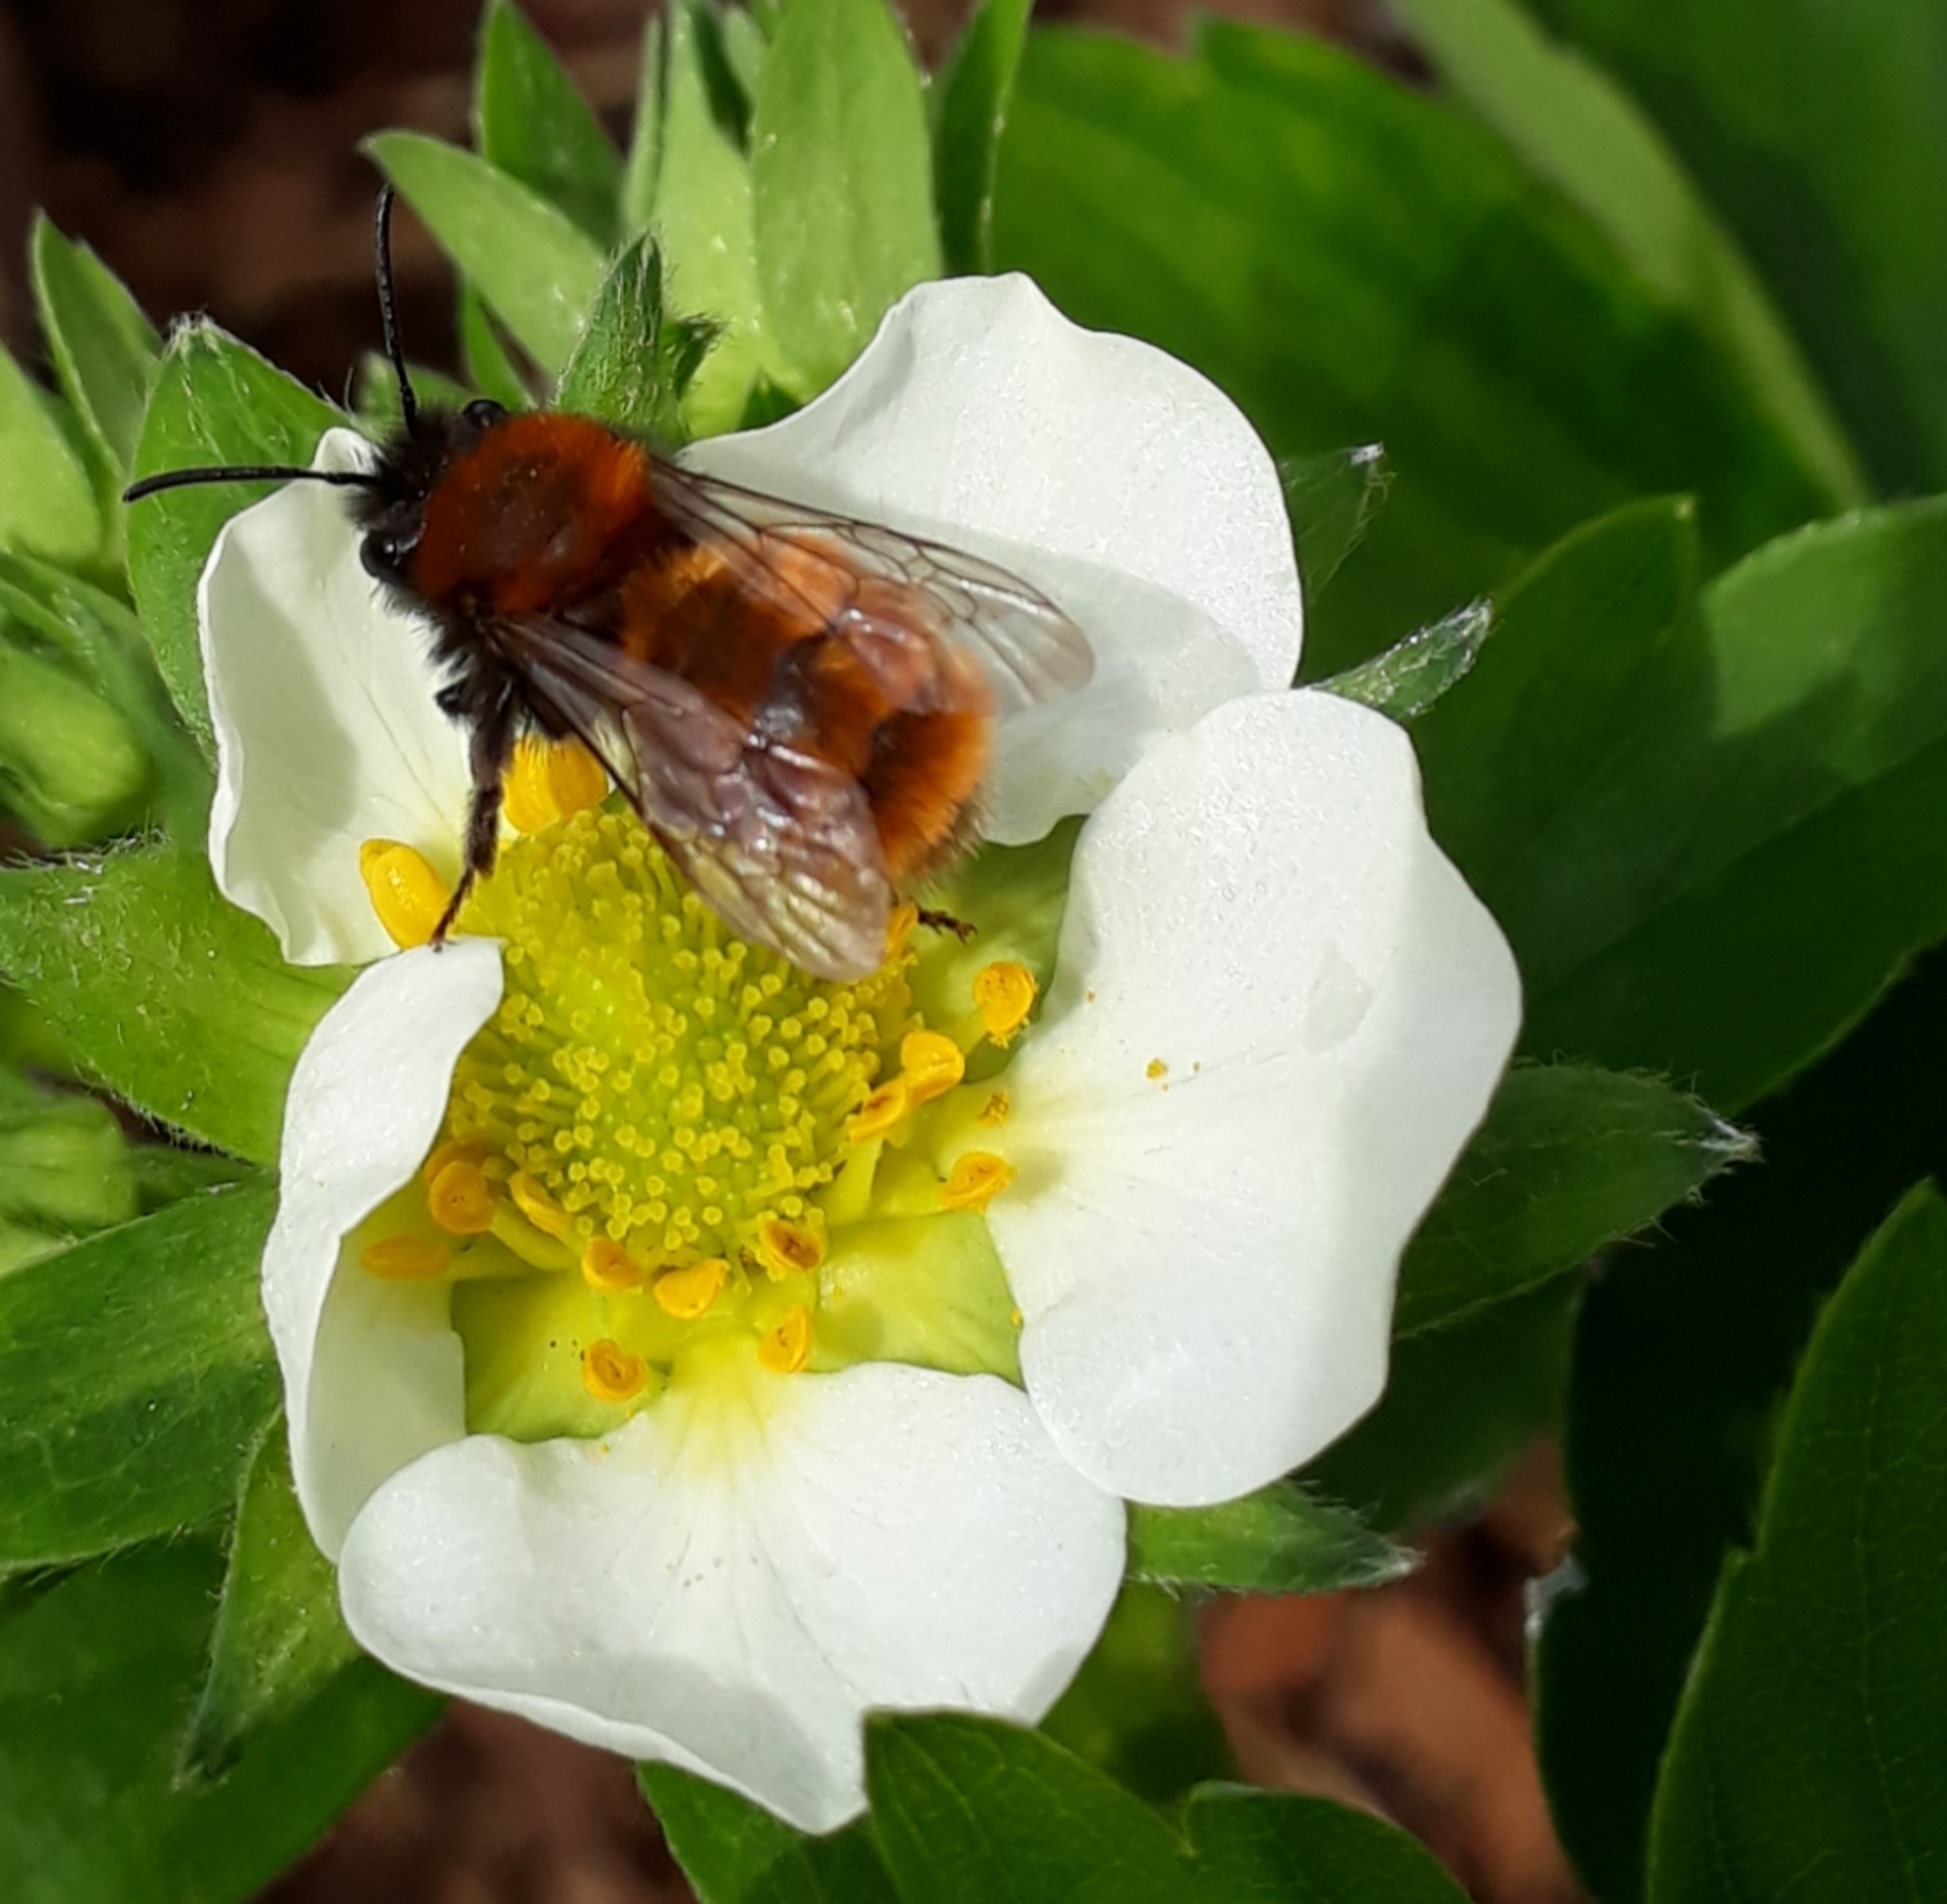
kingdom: Animalia
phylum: Arthropoda
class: Insecta
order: Hymenoptera
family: Andrenidae
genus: Andrena
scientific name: Andrena fulva
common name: Rødpelset jordbi
